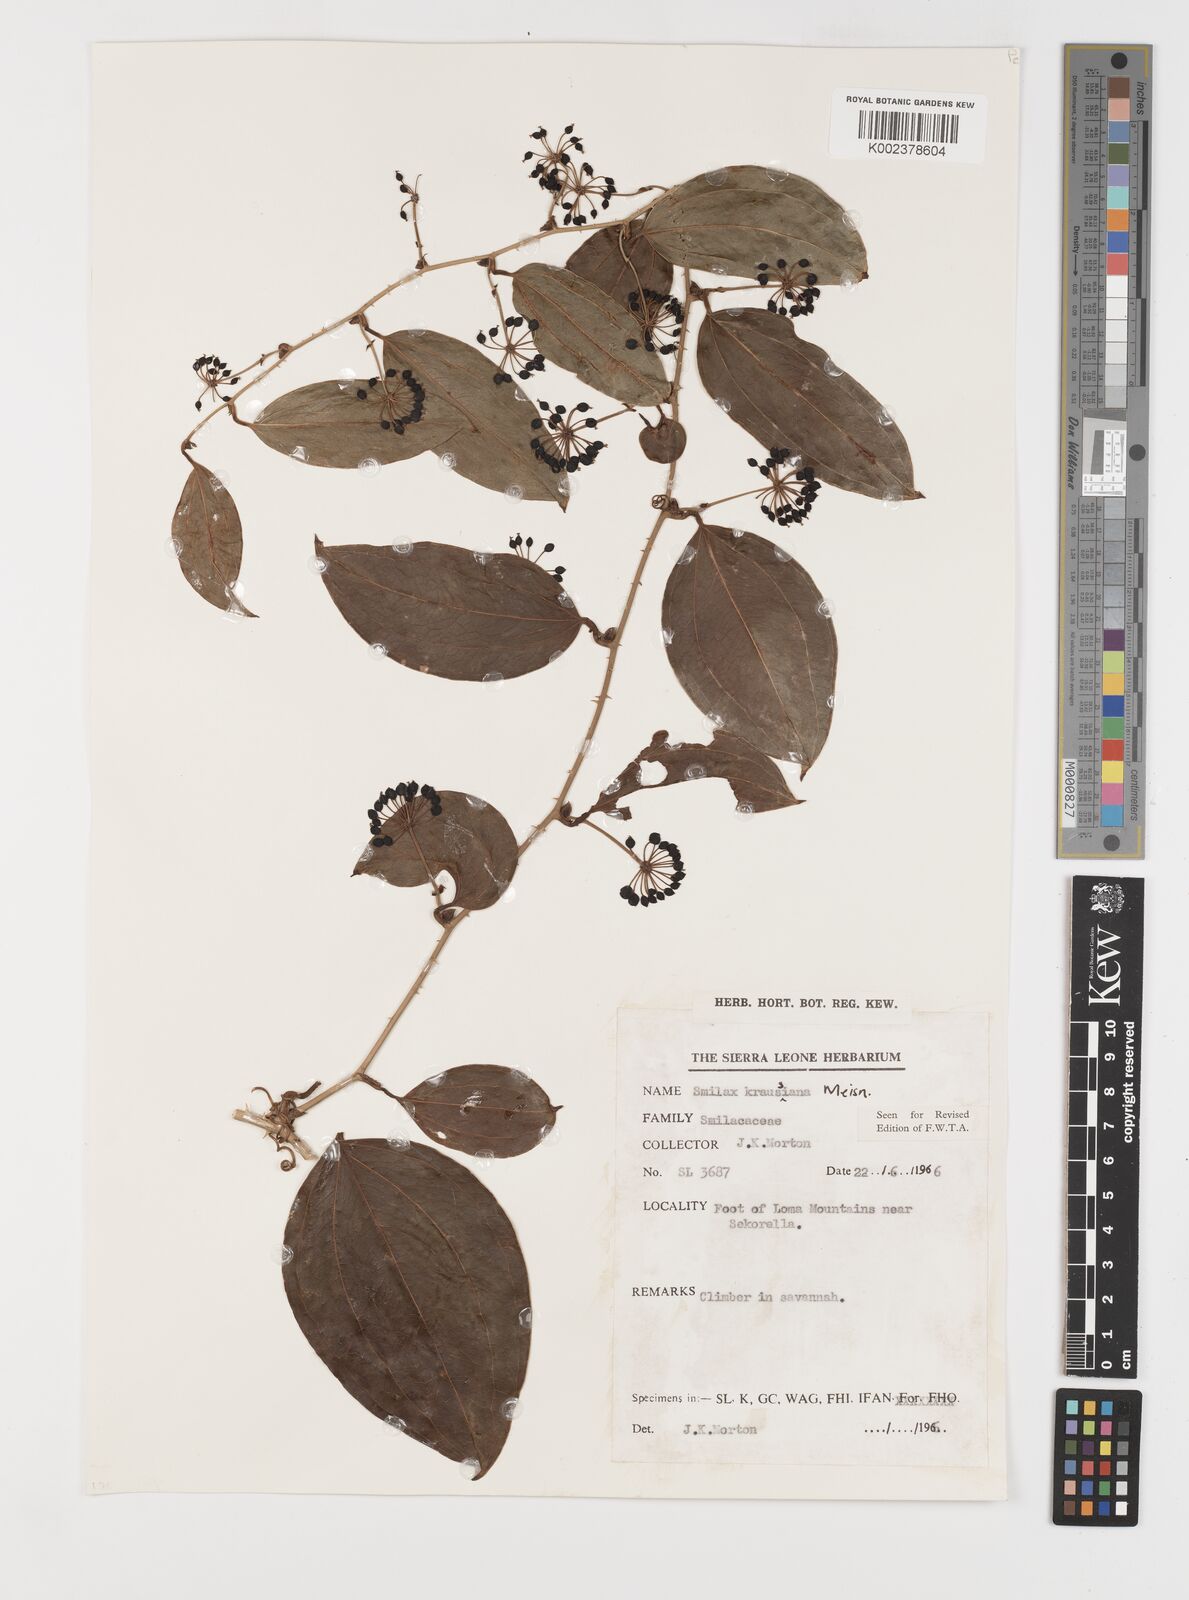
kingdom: Plantae
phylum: Tracheophyta
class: Liliopsida
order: Liliales
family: Smilacaceae
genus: Smilax
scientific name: Smilax anceps
